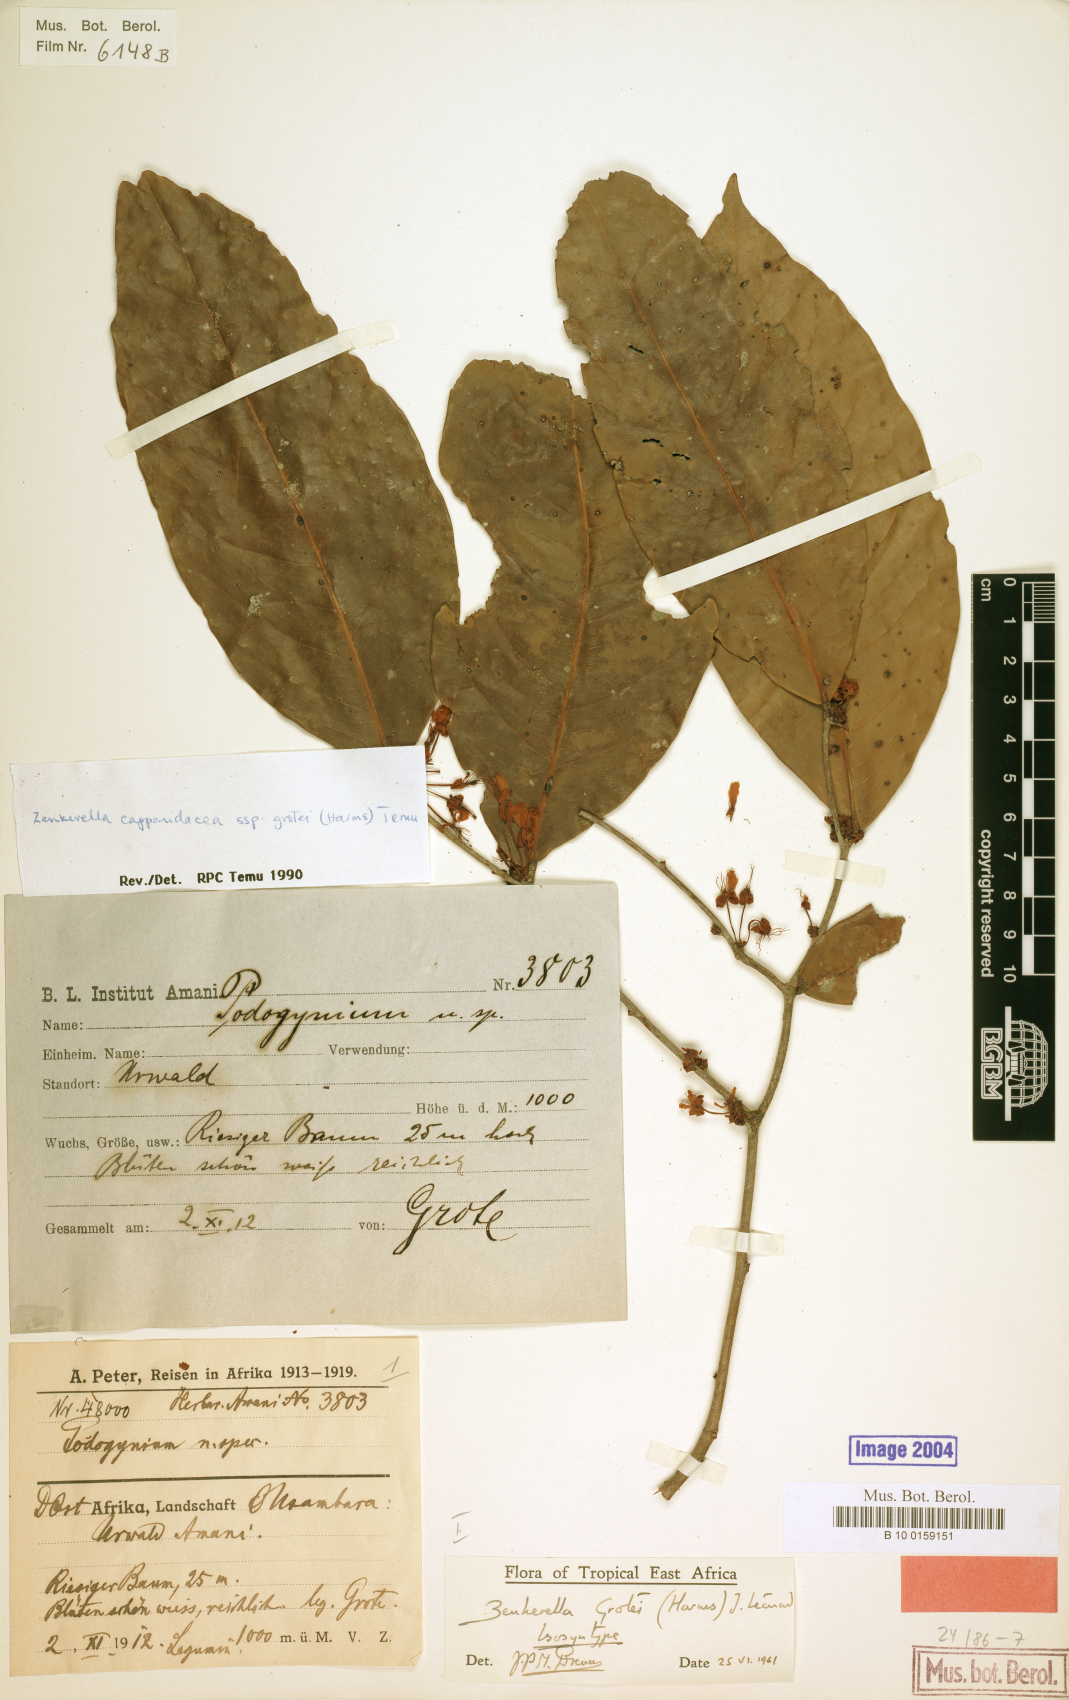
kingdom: Plantae
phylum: Tracheophyta
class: Magnoliopsida
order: Fabales
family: Fabaceae
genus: Zenkerella
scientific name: Zenkerella grotei
